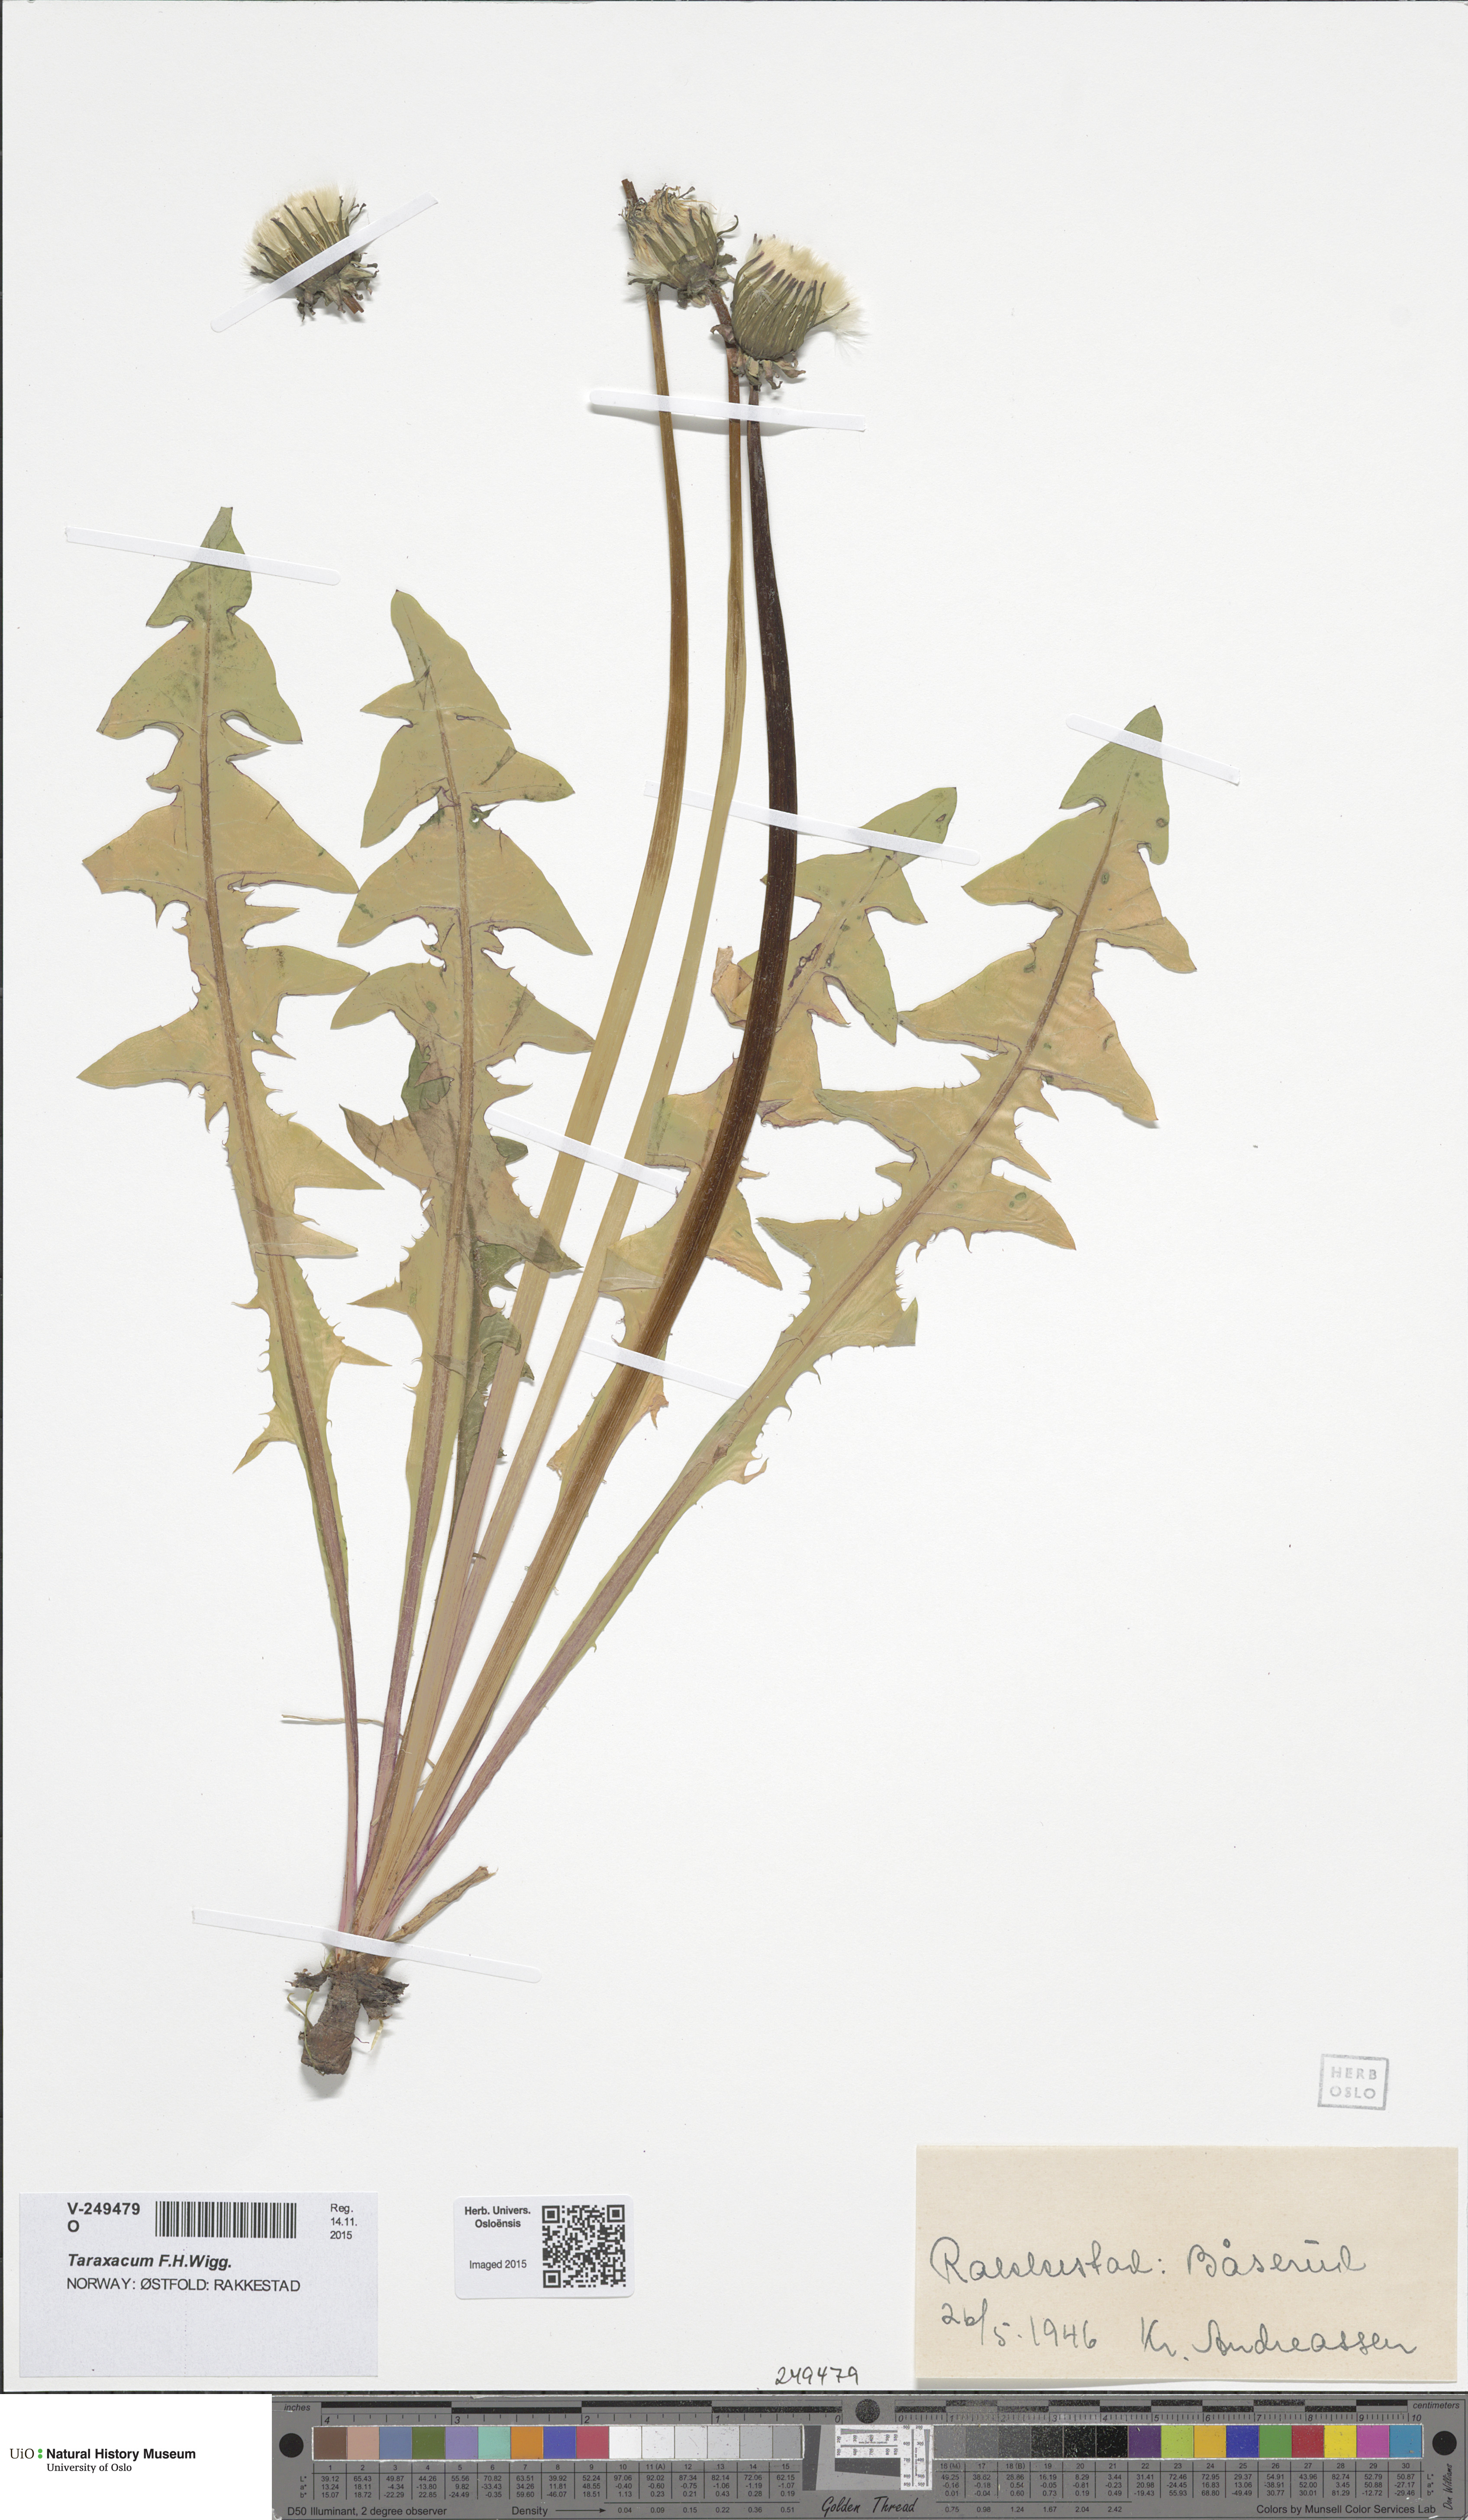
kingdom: Plantae
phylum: Tracheophyta
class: Magnoliopsida
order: Asterales
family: Asteraceae
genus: Taraxacum
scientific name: Taraxacum
